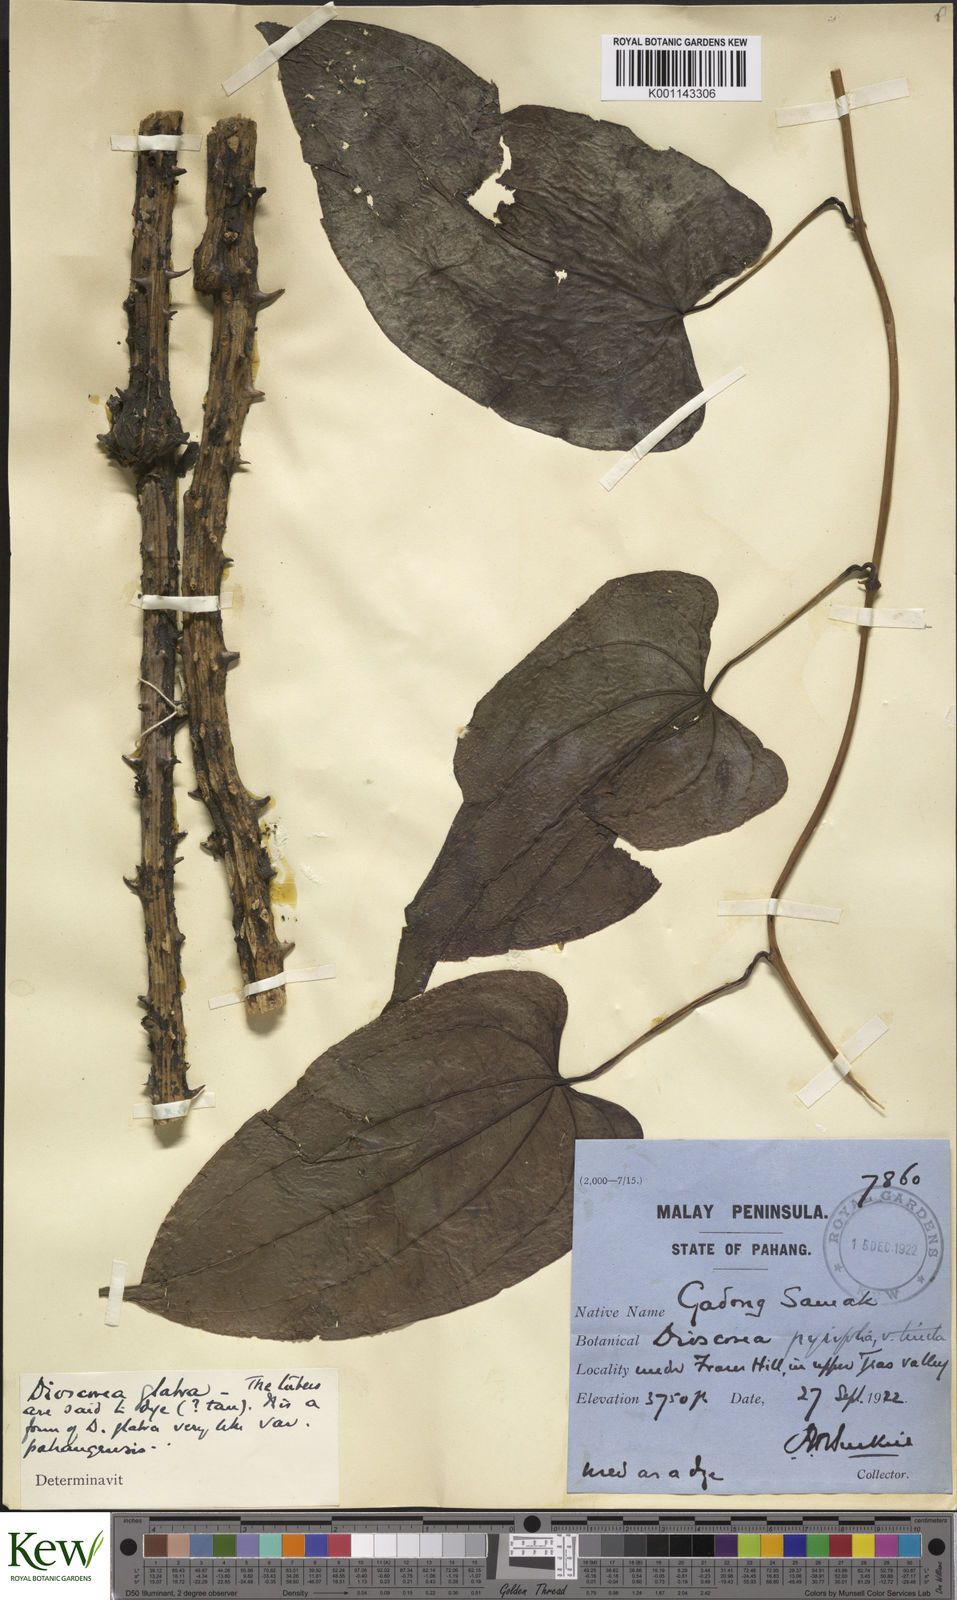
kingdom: Plantae
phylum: Tracheophyta
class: Liliopsida
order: Dioscoreales
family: Dioscoreaceae
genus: Dioscorea
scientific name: Dioscorea glabra
